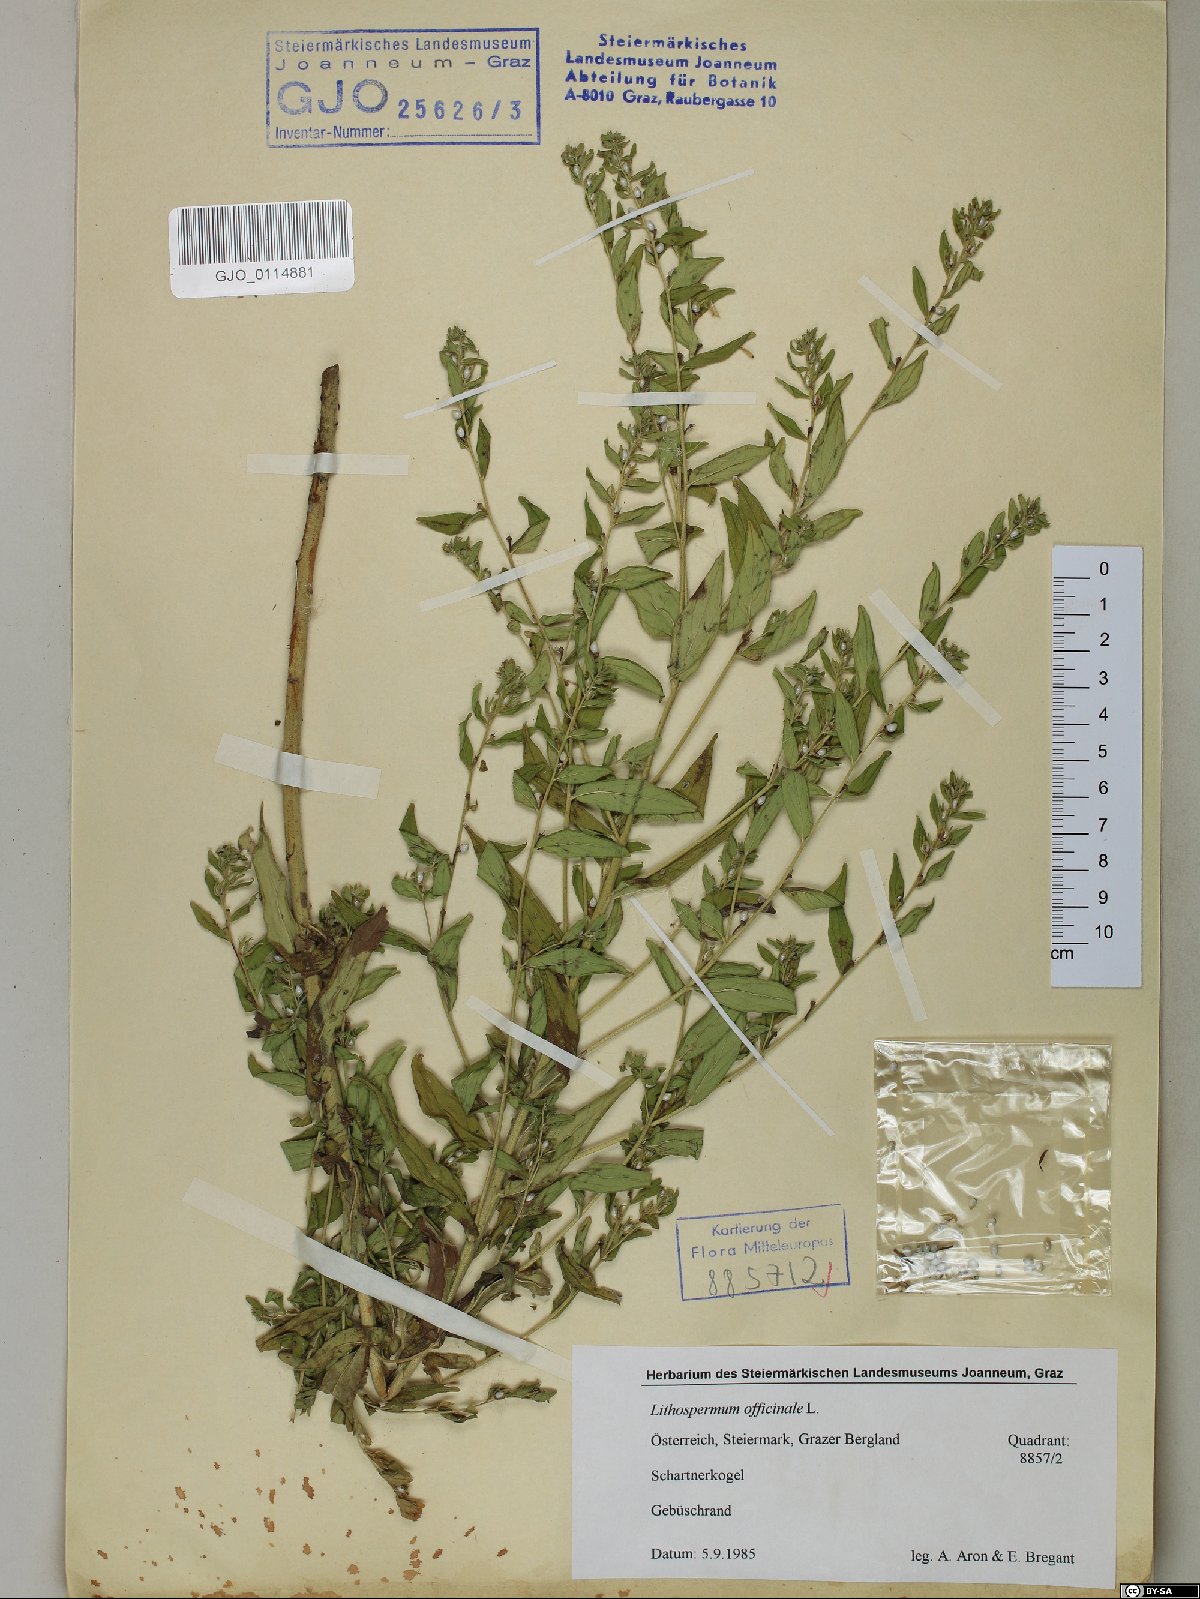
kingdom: Plantae
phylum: Tracheophyta
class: Magnoliopsida
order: Boraginales
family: Boraginaceae
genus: Lithospermum
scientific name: Lithospermum officinale
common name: Common gromwell
